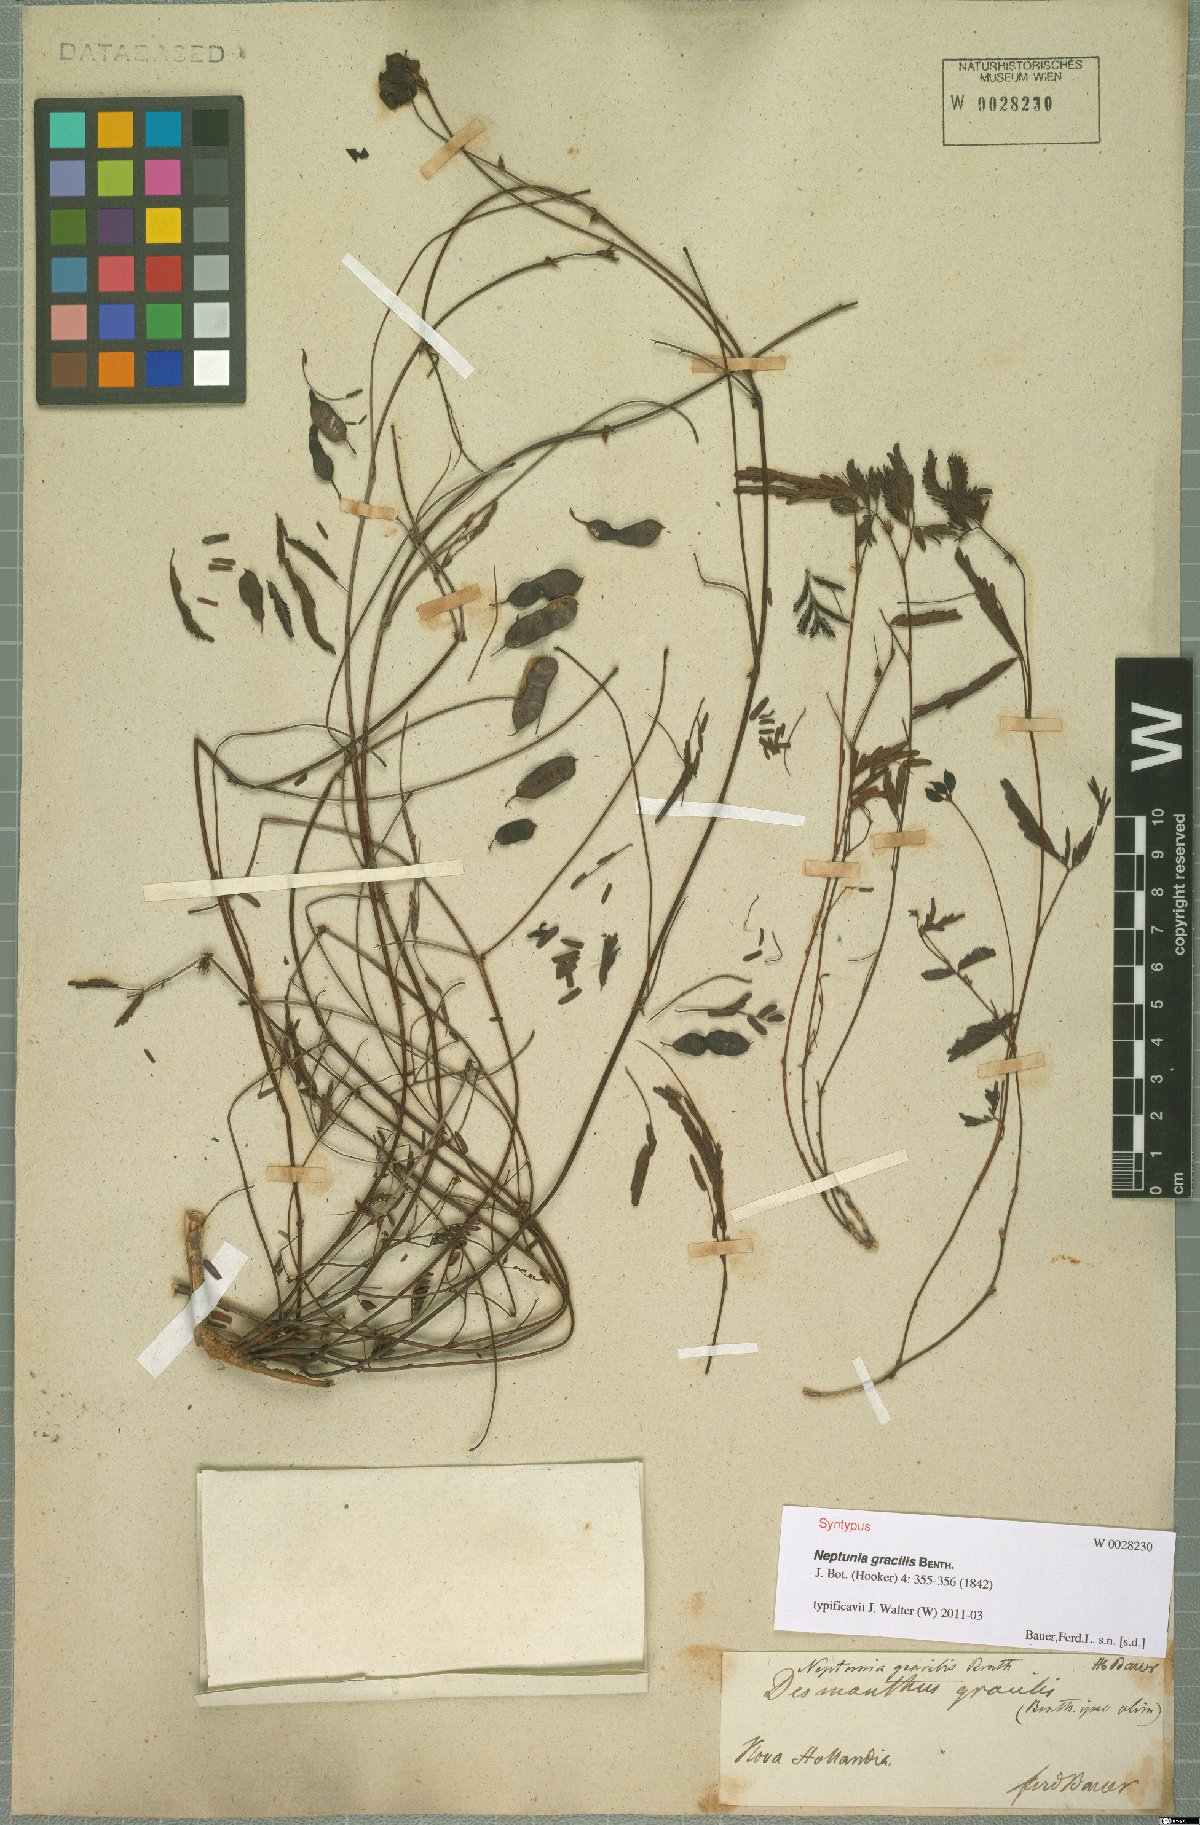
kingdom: Plantae
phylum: Tracheophyta
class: Magnoliopsida
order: Fabales
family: Fabaceae
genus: Neptunia
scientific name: Neptunia gracilis
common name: Sensitive-plant
